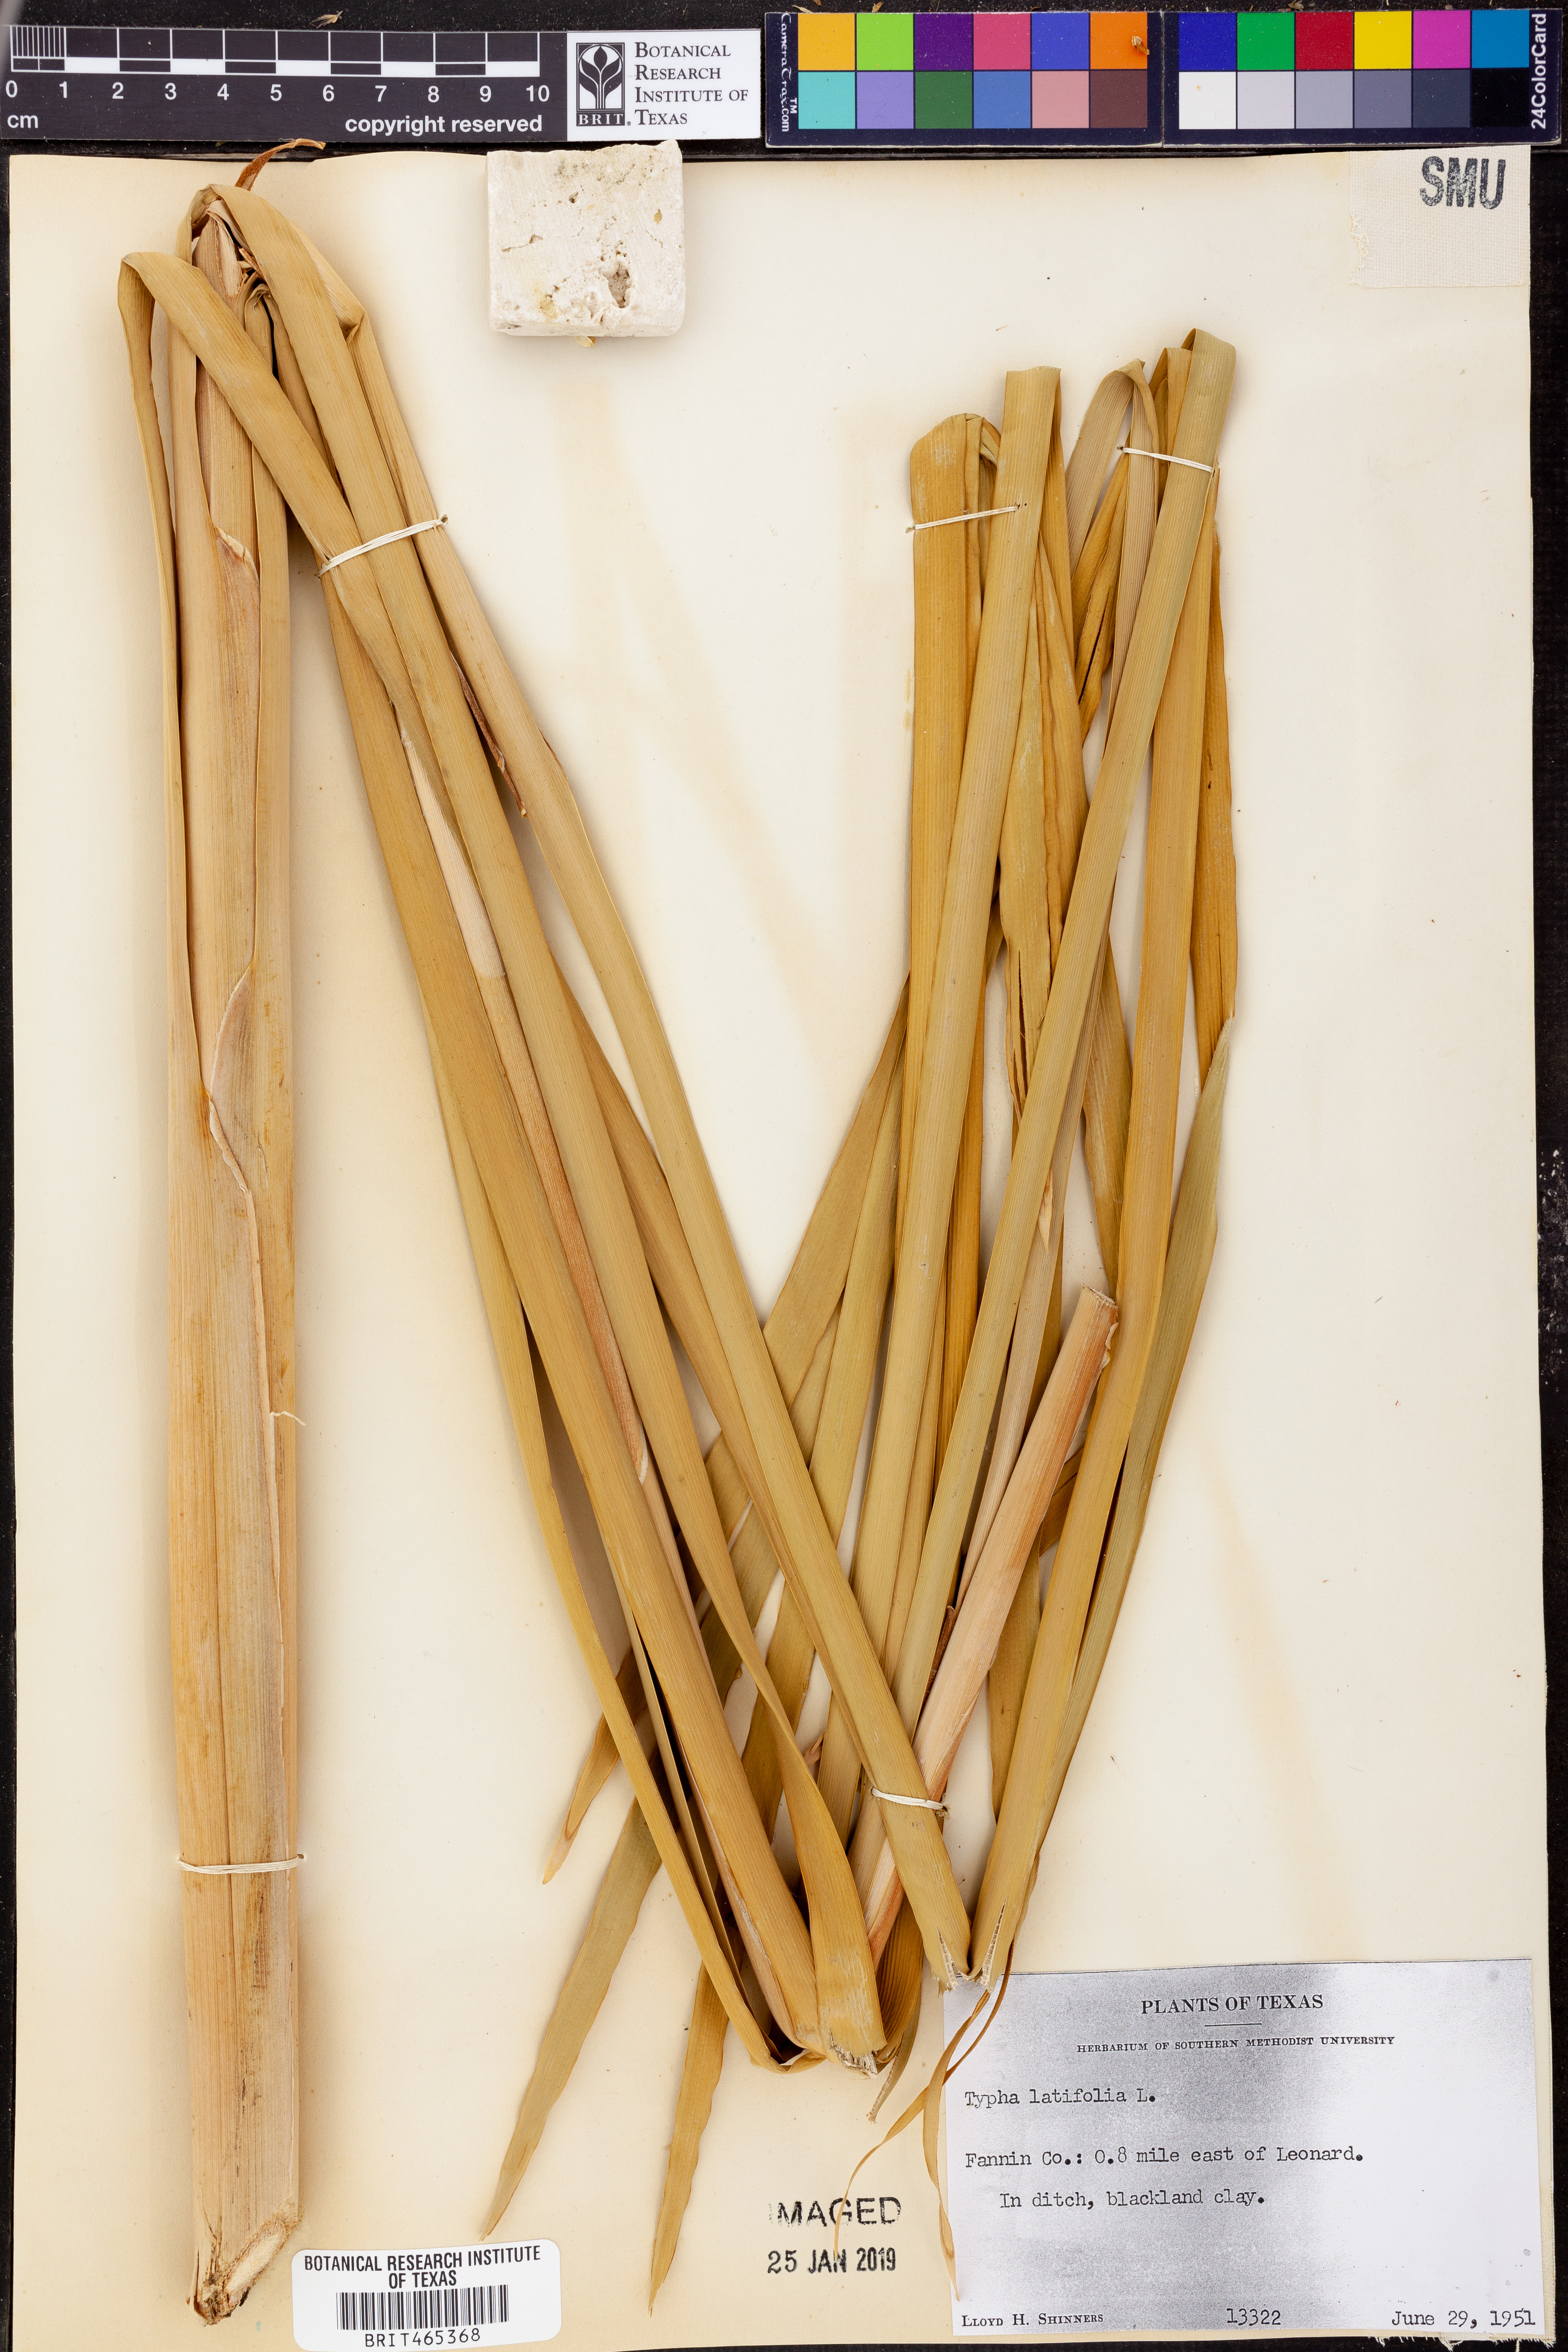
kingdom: Plantae
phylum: Tracheophyta
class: Liliopsida
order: Poales
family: Typhaceae
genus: Typha
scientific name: Typha latifolia
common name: Broadleaf cattail
